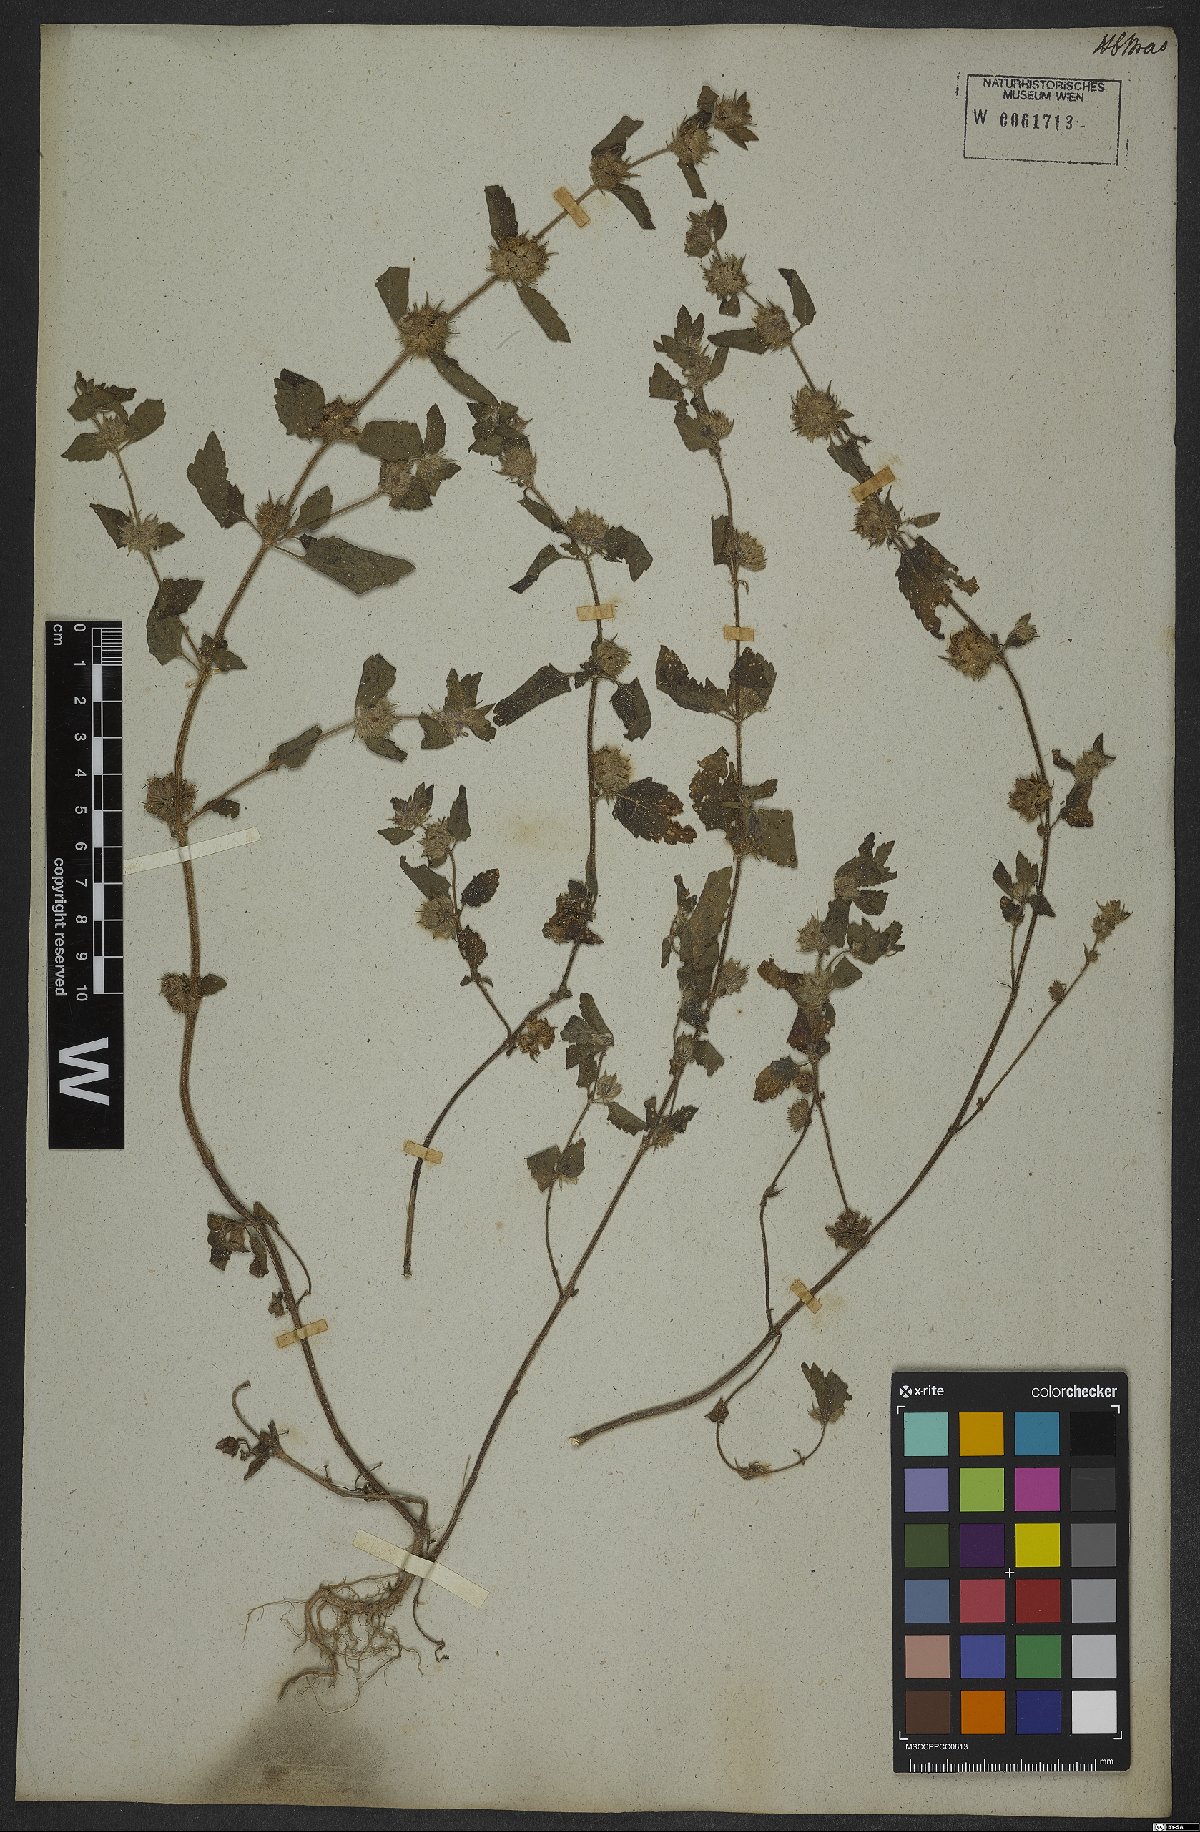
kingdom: Plantae
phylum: Tracheophyta
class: Magnoliopsida
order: Lamiales
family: Lamiaceae
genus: Marsypianthes
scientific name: Marsypianthes chamaedrys
